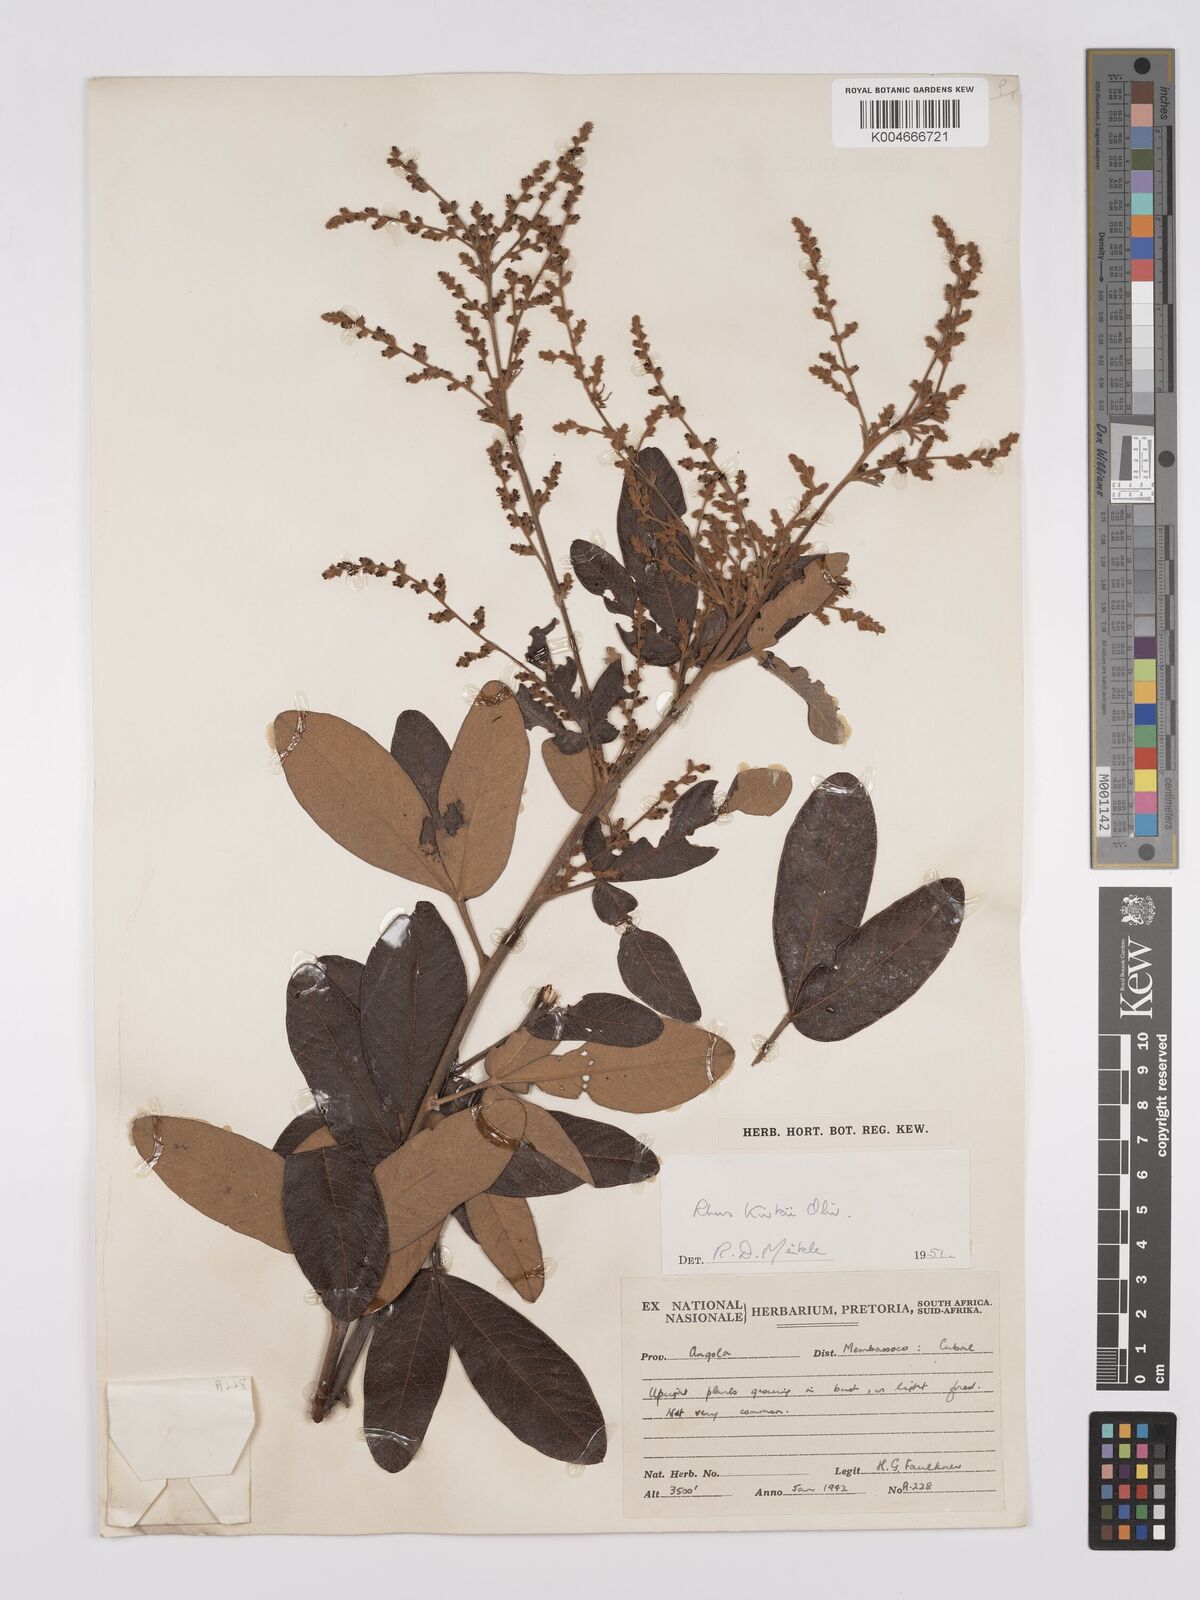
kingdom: Plantae
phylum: Tracheophyta
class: Magnoliopsida
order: Sapindales
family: Anacardiaceae
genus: Searsia
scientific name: Searsia kirkii
